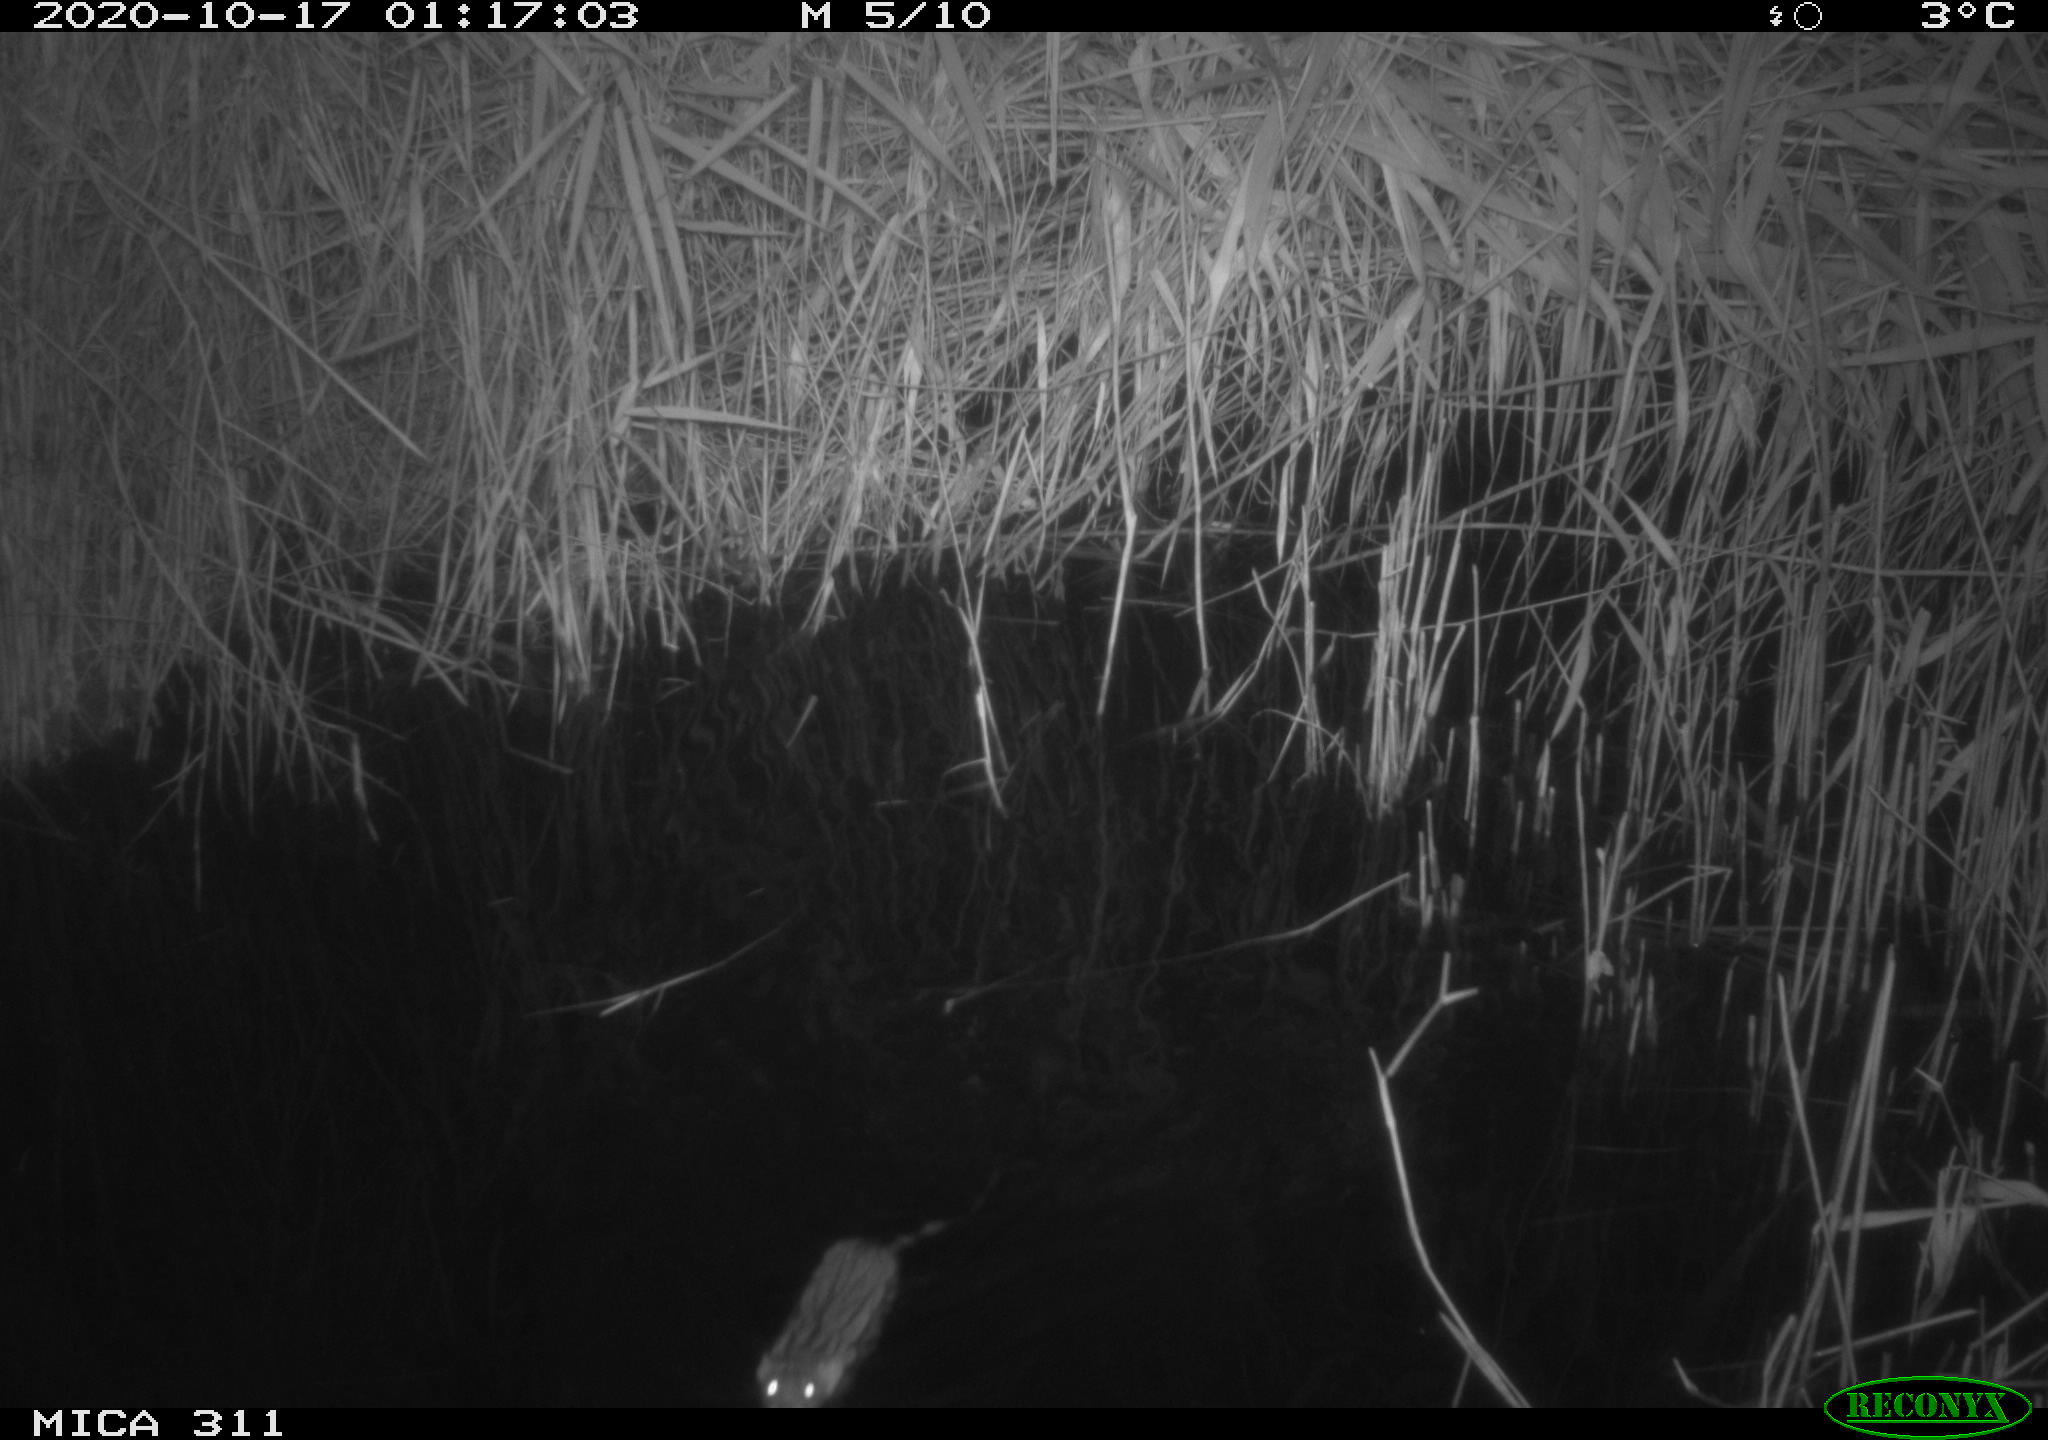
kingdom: Animalia
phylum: Chordata
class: Mammalia
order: Rodentia
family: Cricetidae
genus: Ondatra
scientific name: Ondatra zibethicus
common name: Muskrat
